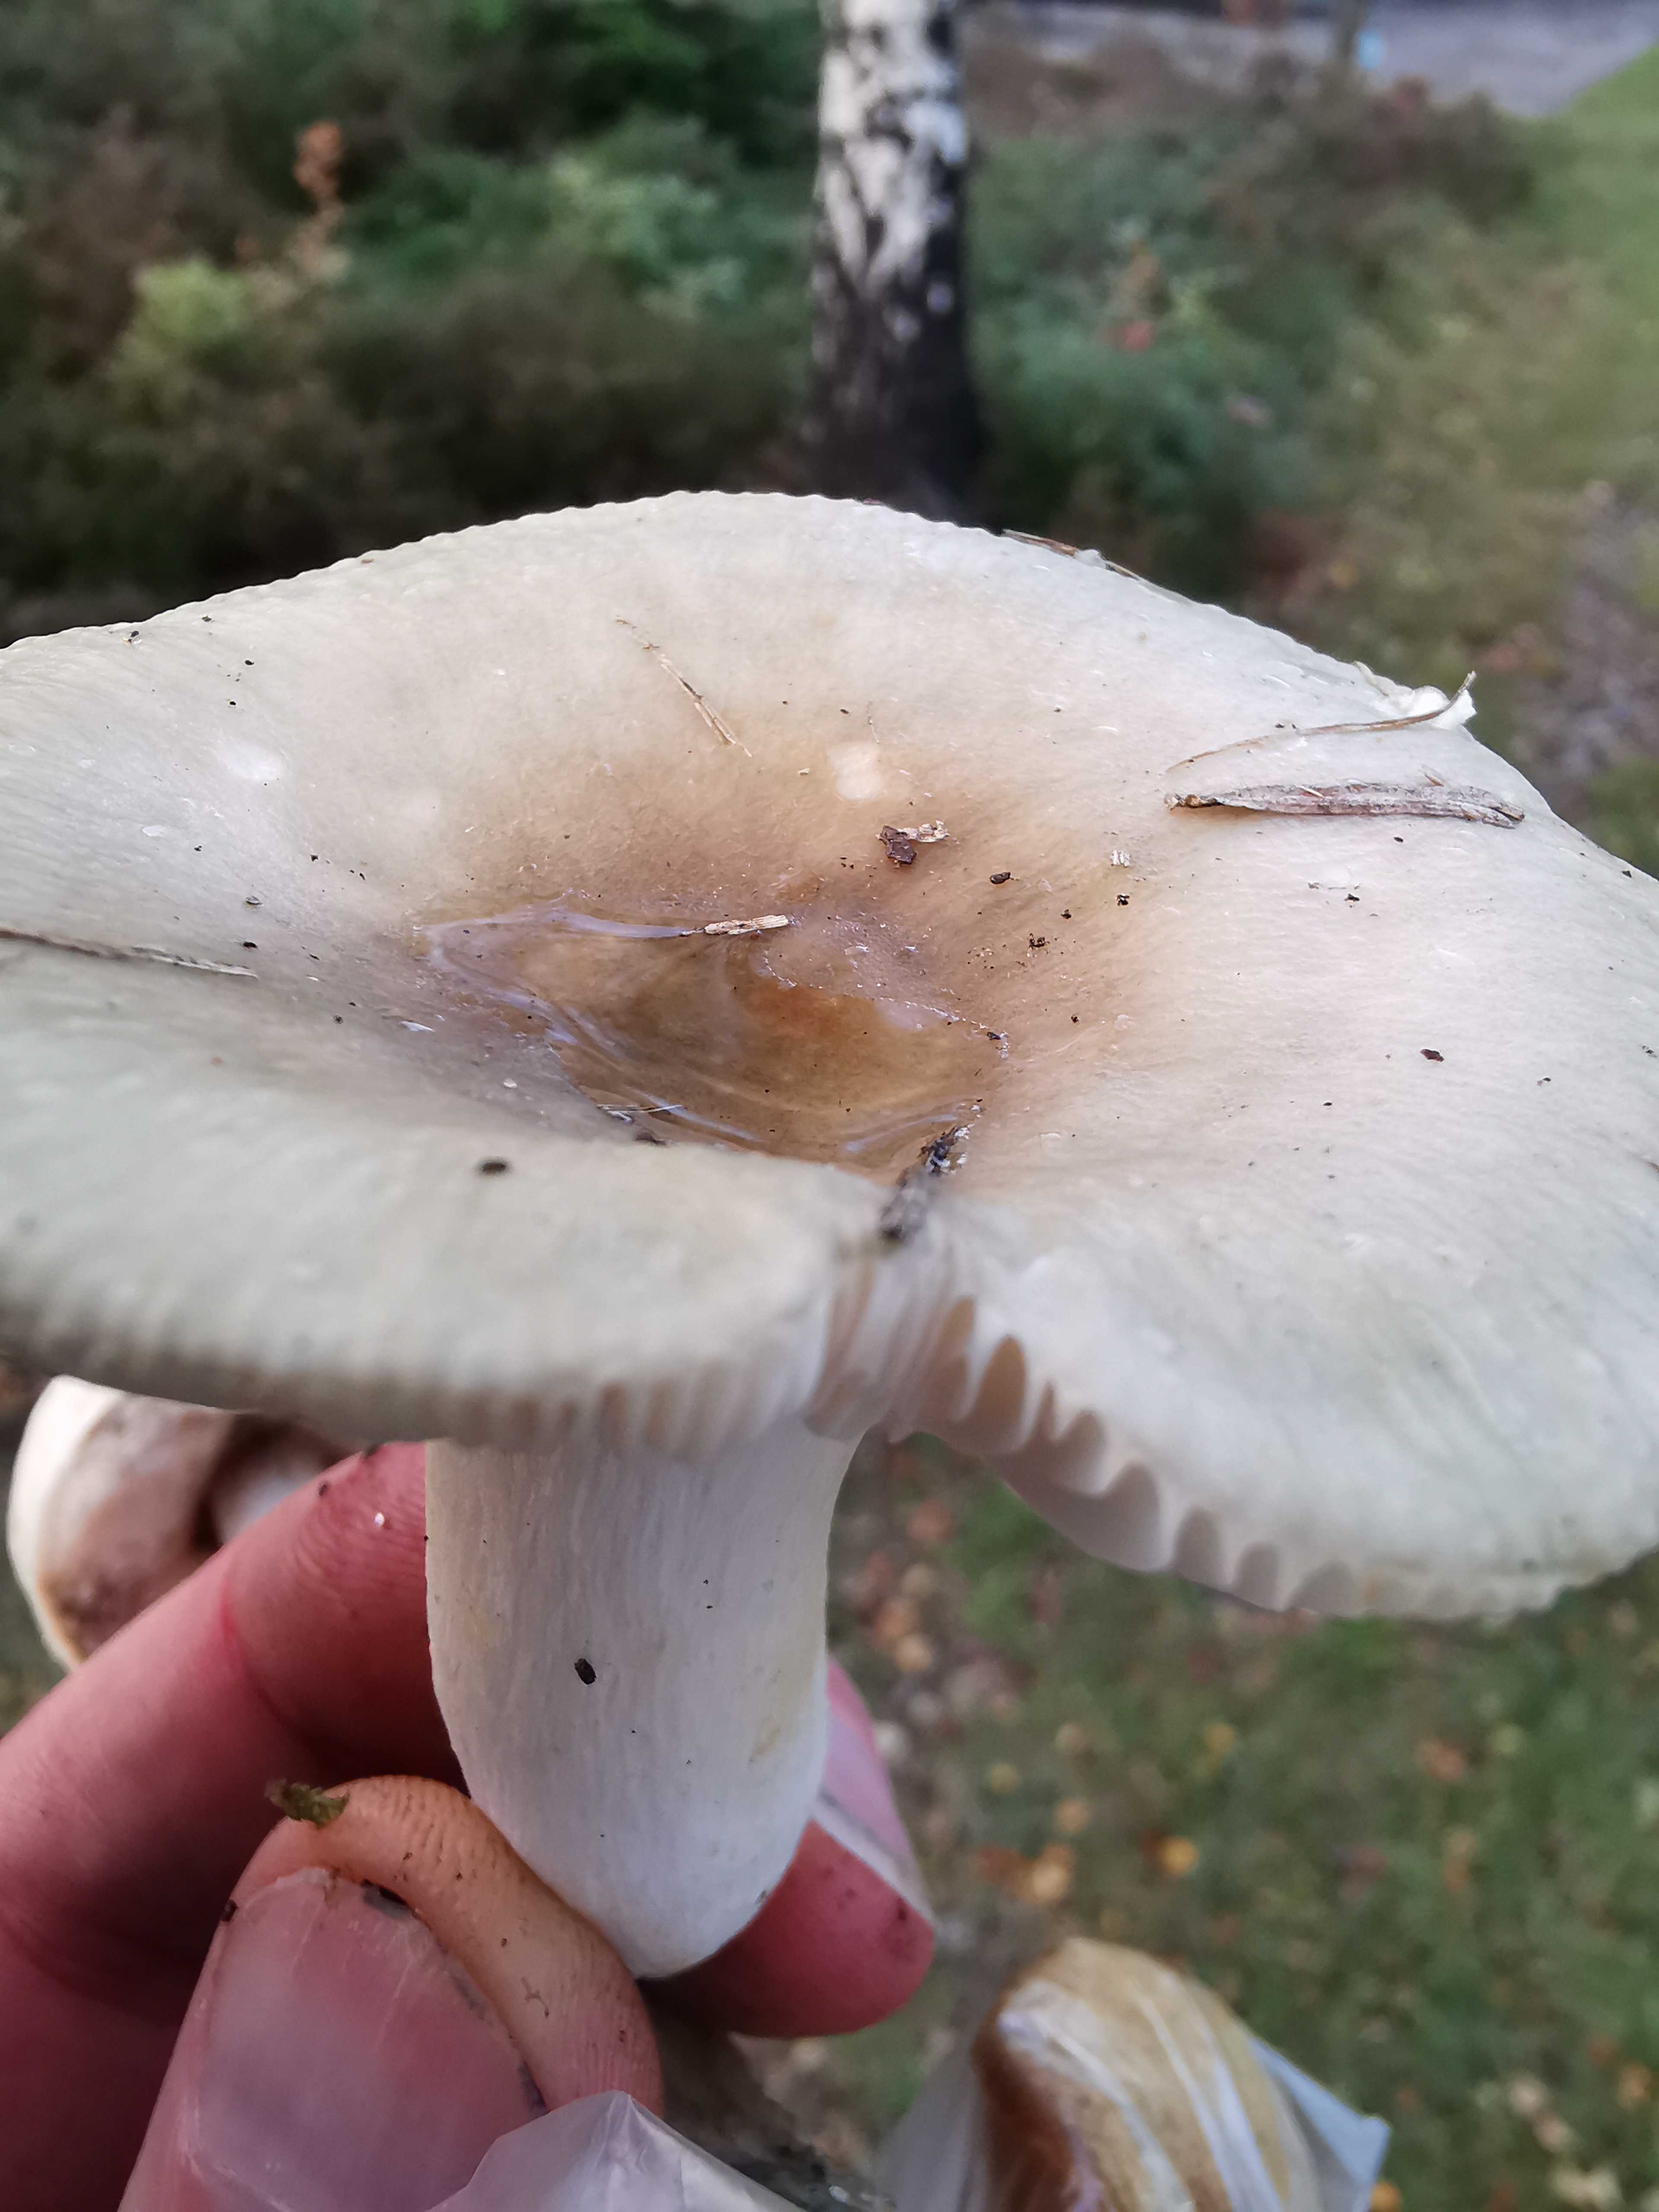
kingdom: Fungi
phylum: Basidiomycota
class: Agaricomycetes
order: Russulales
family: Russulaceae
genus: Russula
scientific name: Russula aeruginea
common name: græsgrøn skørhat
